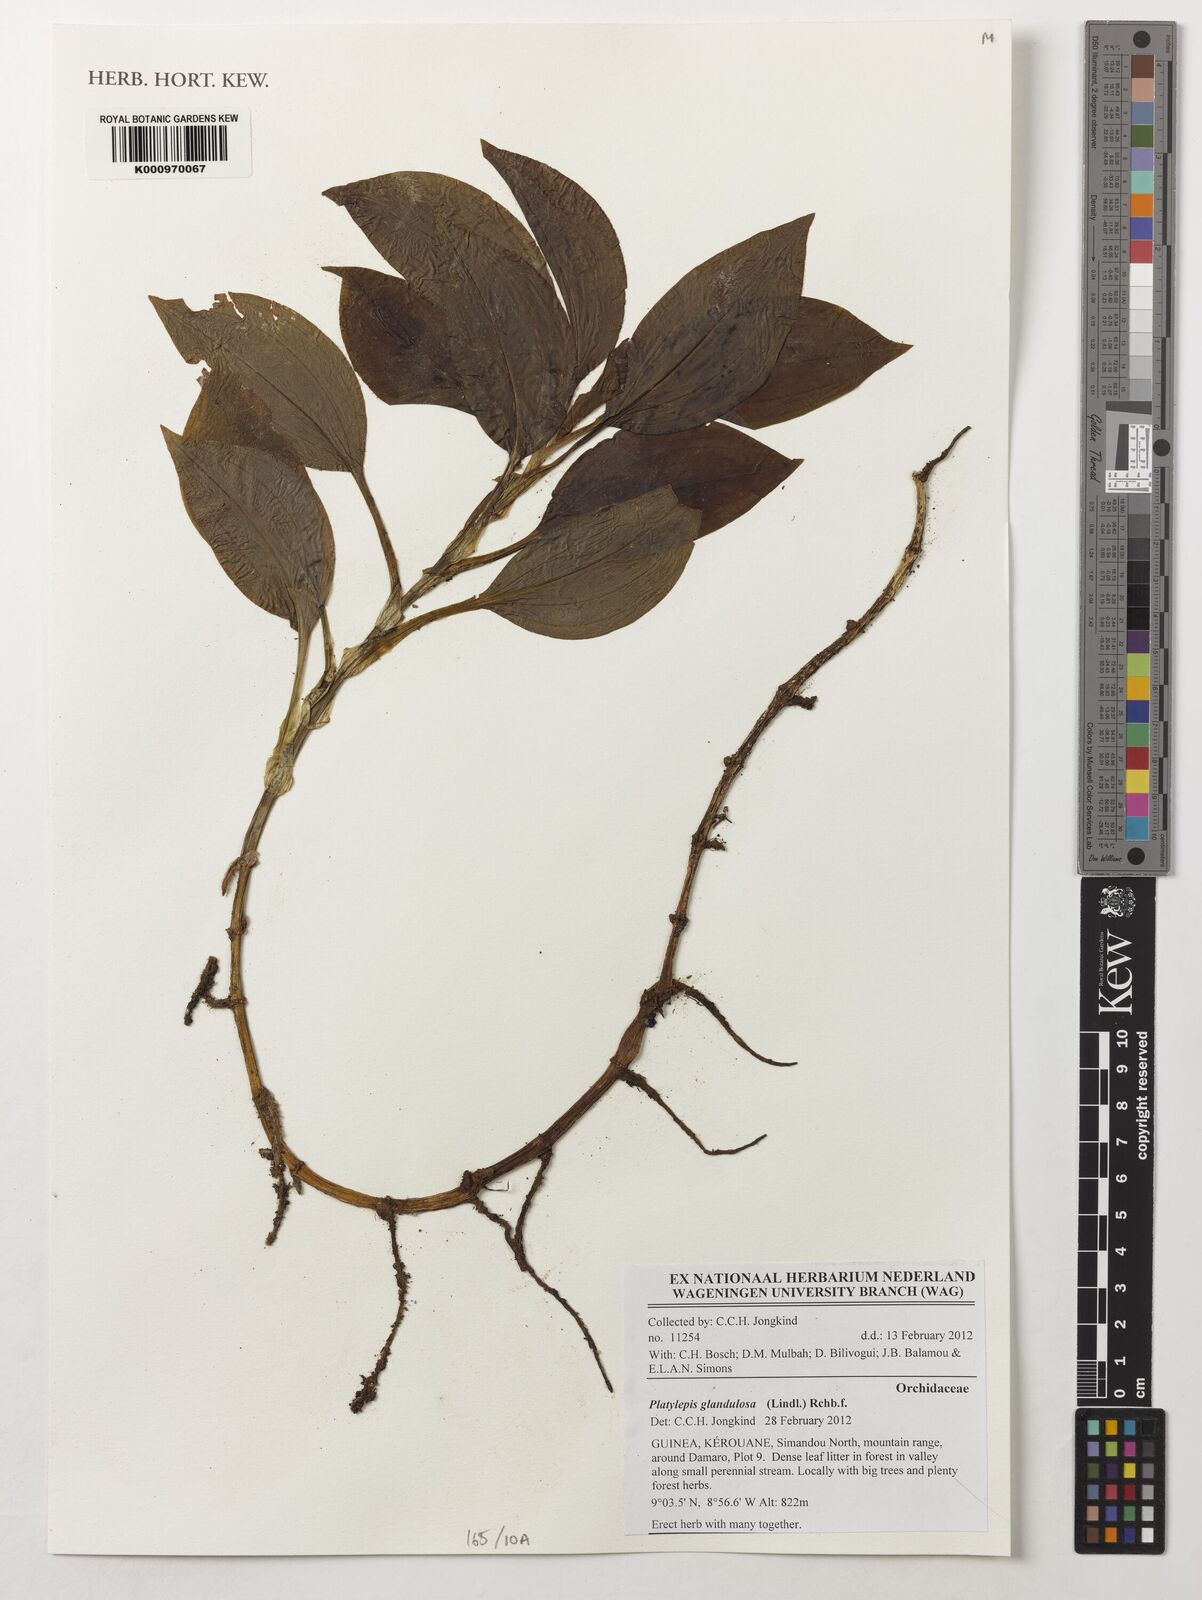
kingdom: Plantae
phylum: Tracheophyta
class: Liliopsida
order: Asparagales
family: Orchidaceae
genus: Platylepis
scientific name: Platylepis glandulosa
